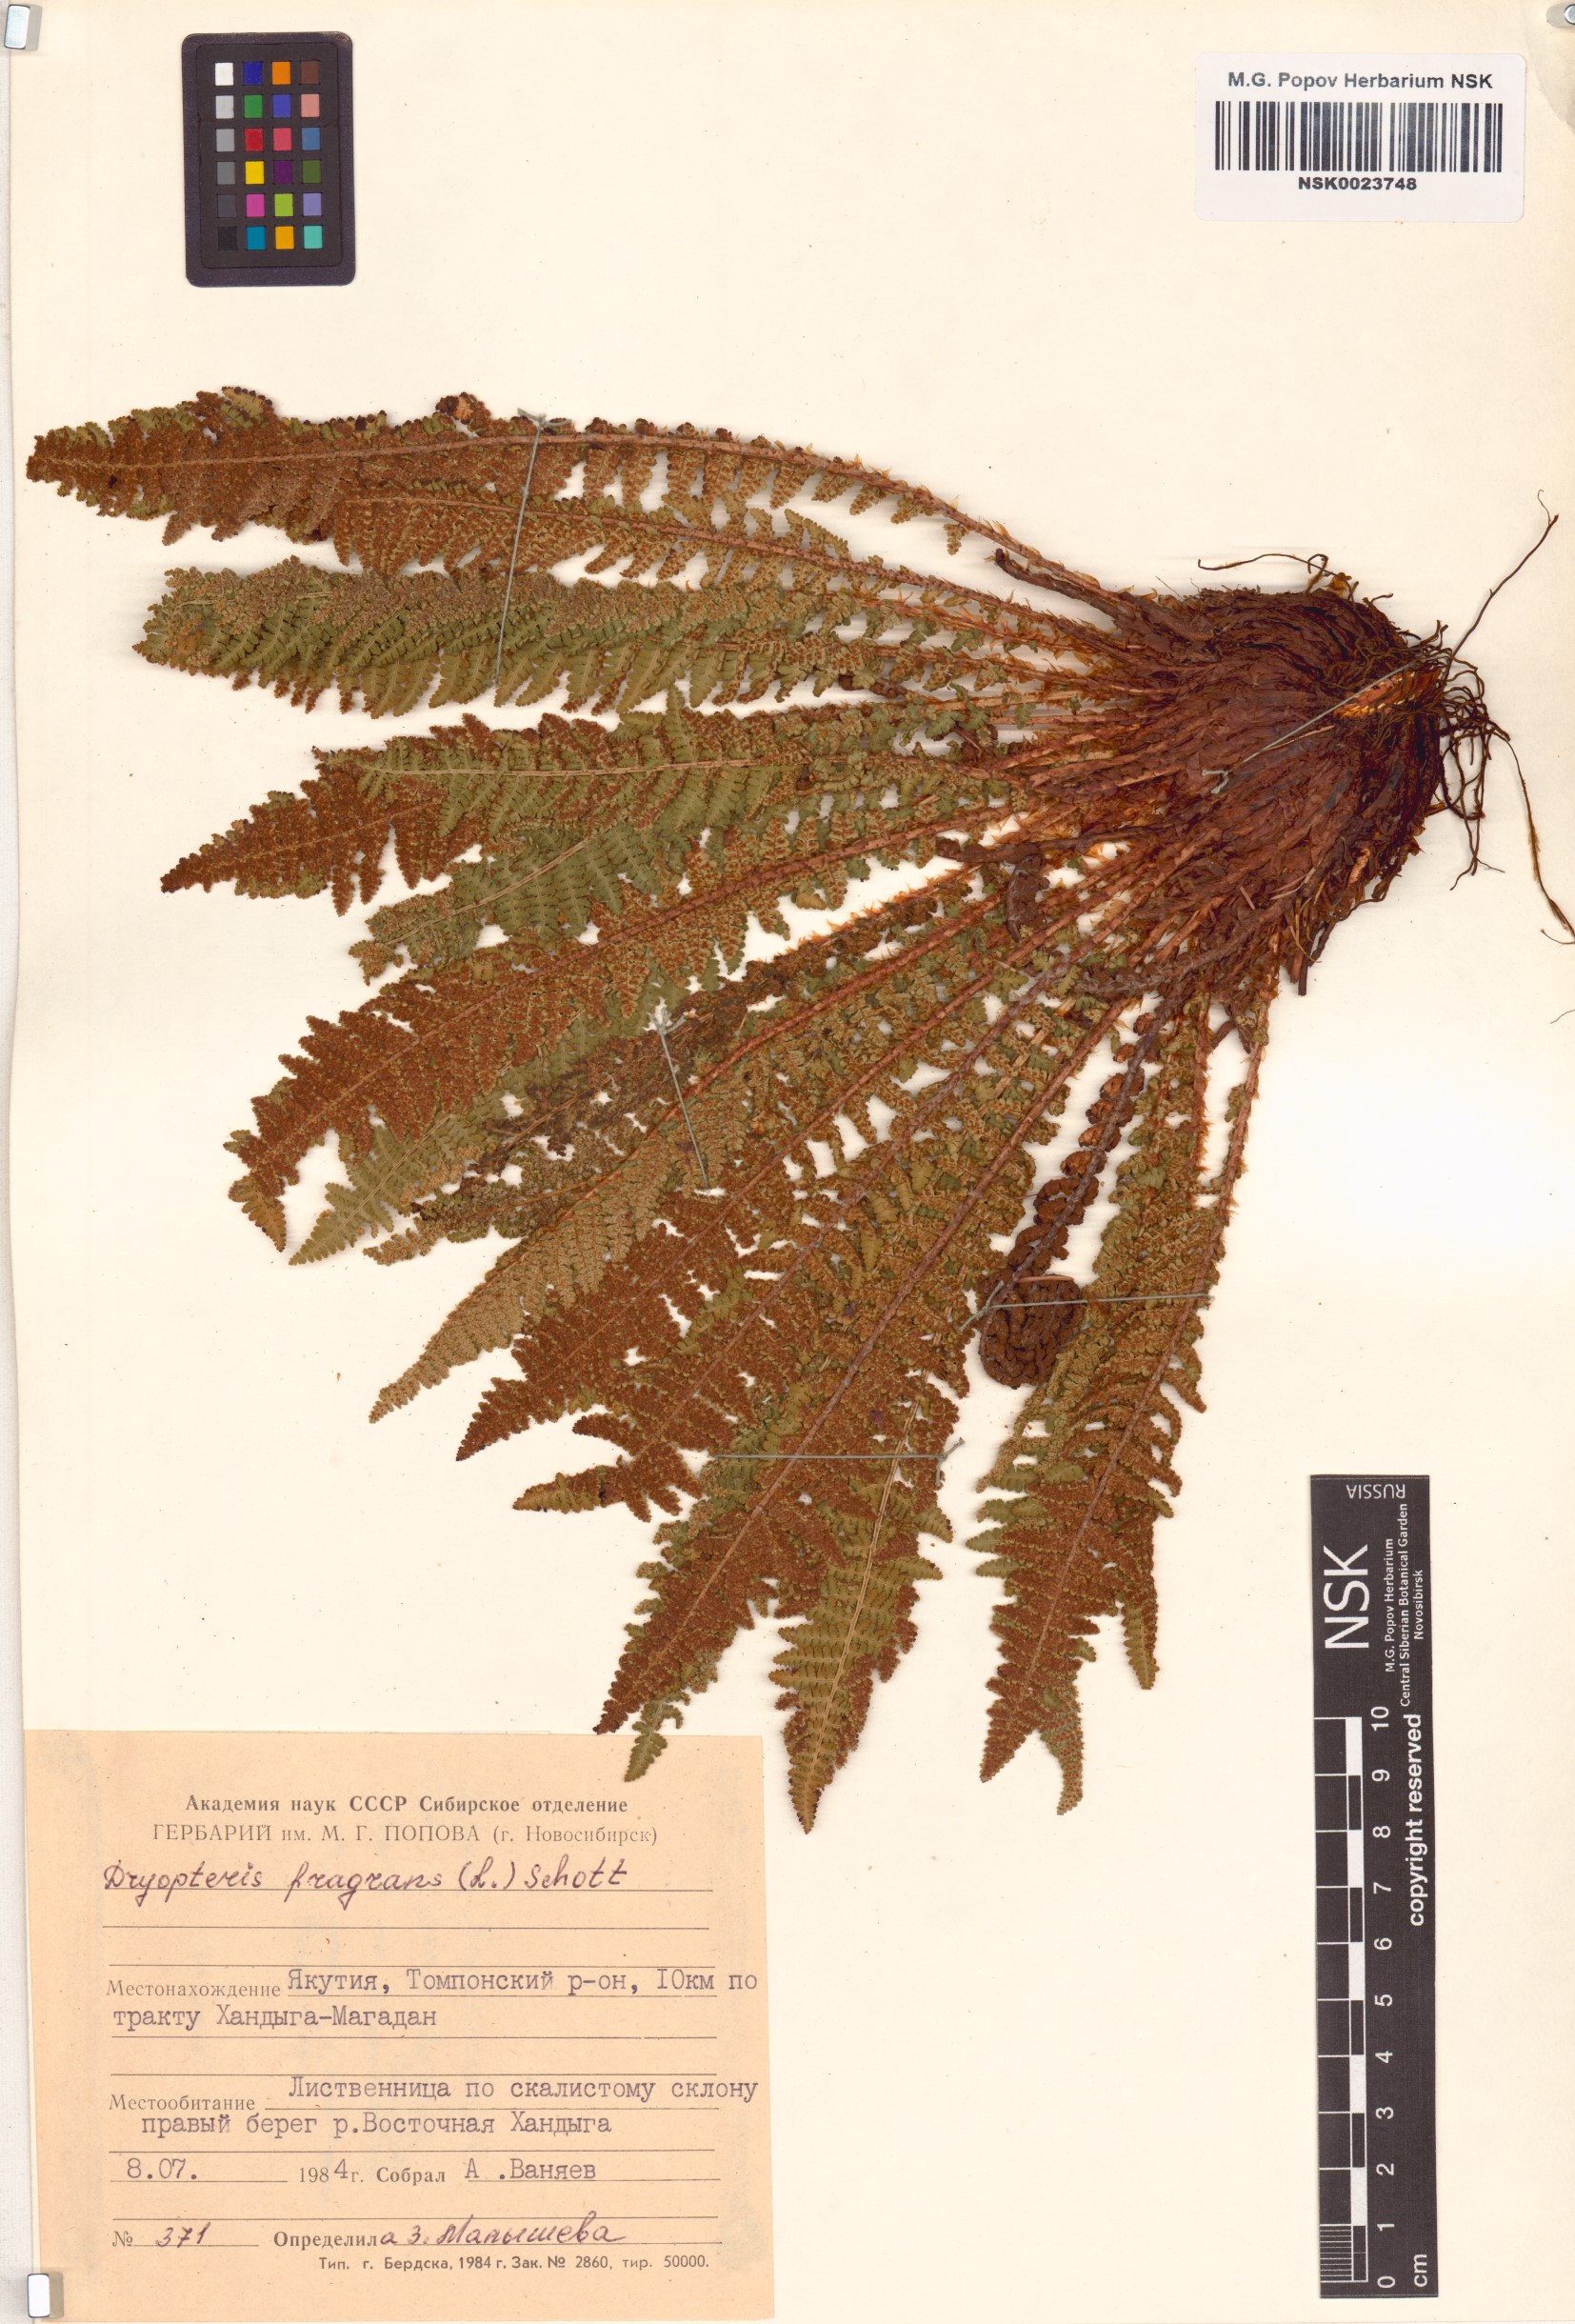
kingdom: Plantae
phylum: Tracheophyta
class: Polypodiopsida
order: Polypodiales
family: Dryopteridaceae
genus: Dryopteris
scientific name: Dryopteris fragrans
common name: Fragrant wood fern
